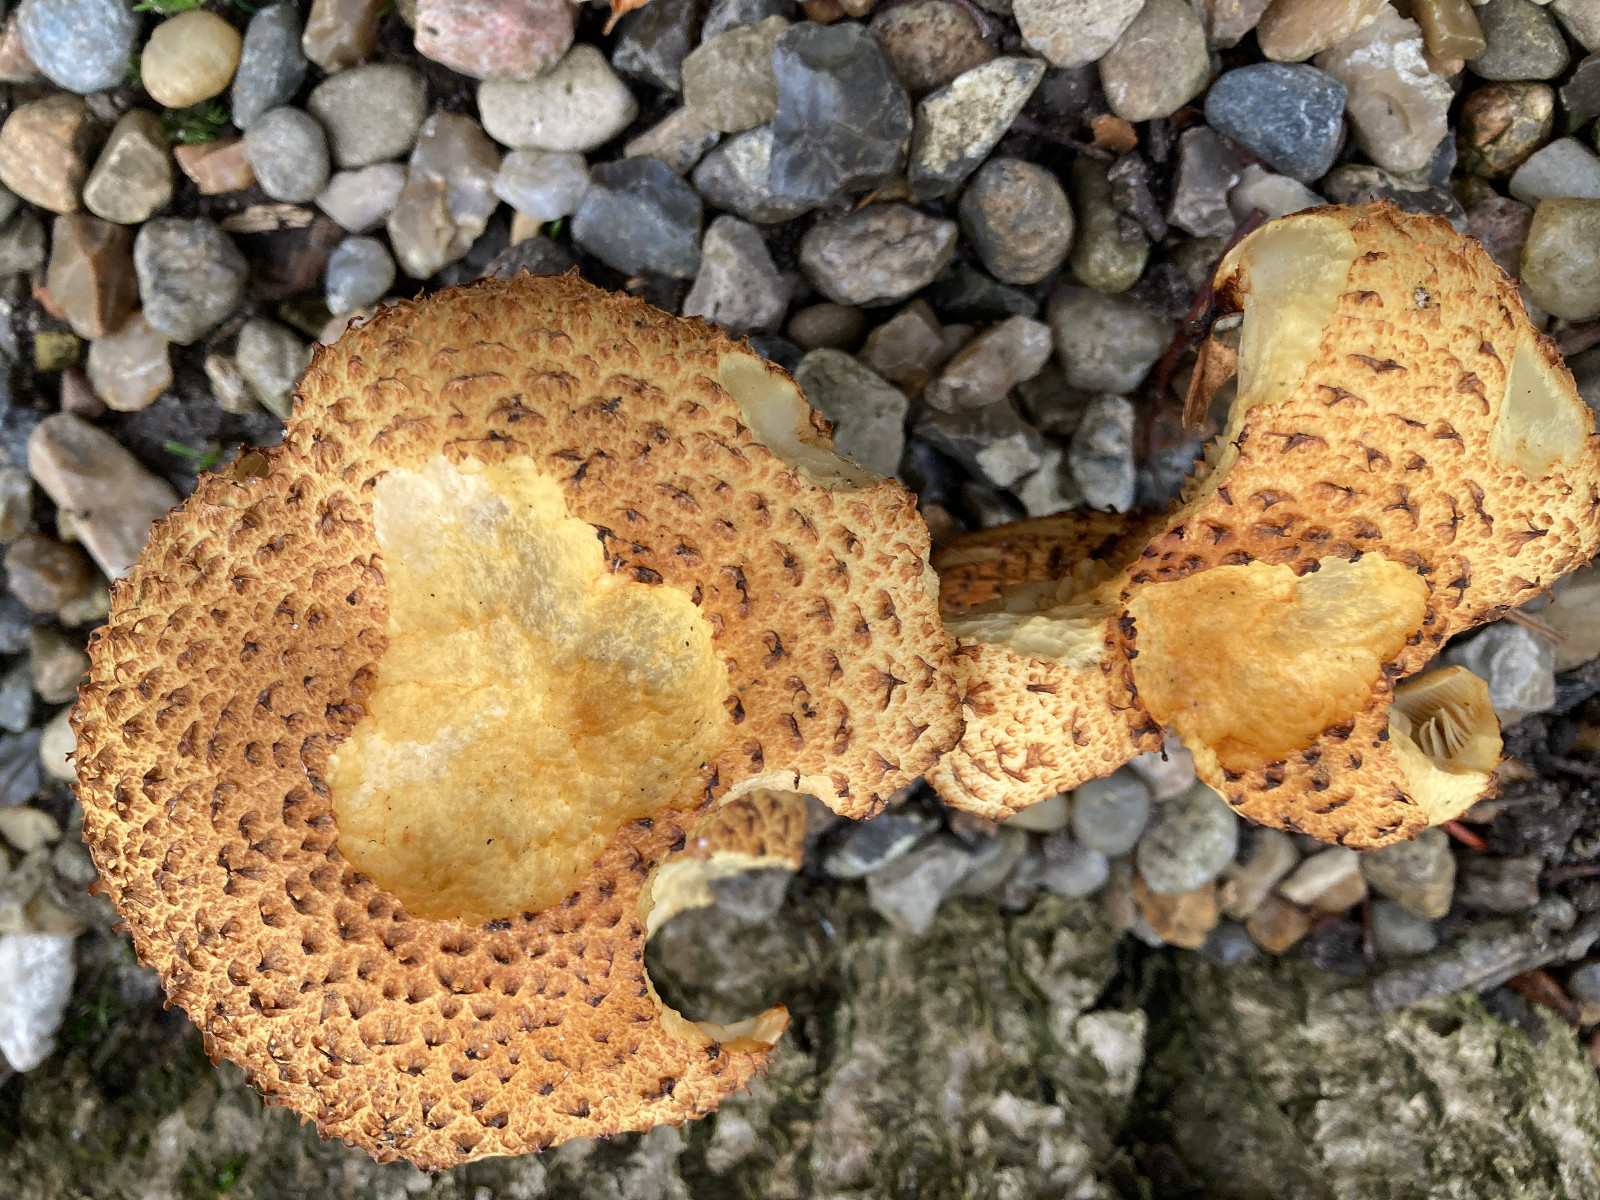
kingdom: Fungi
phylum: Basidiomycota
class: Agaricomycetes
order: Agaricales
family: Strophariaceae
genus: Pholiota
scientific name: Pholiota squarrosa
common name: krumskællet skælhat
